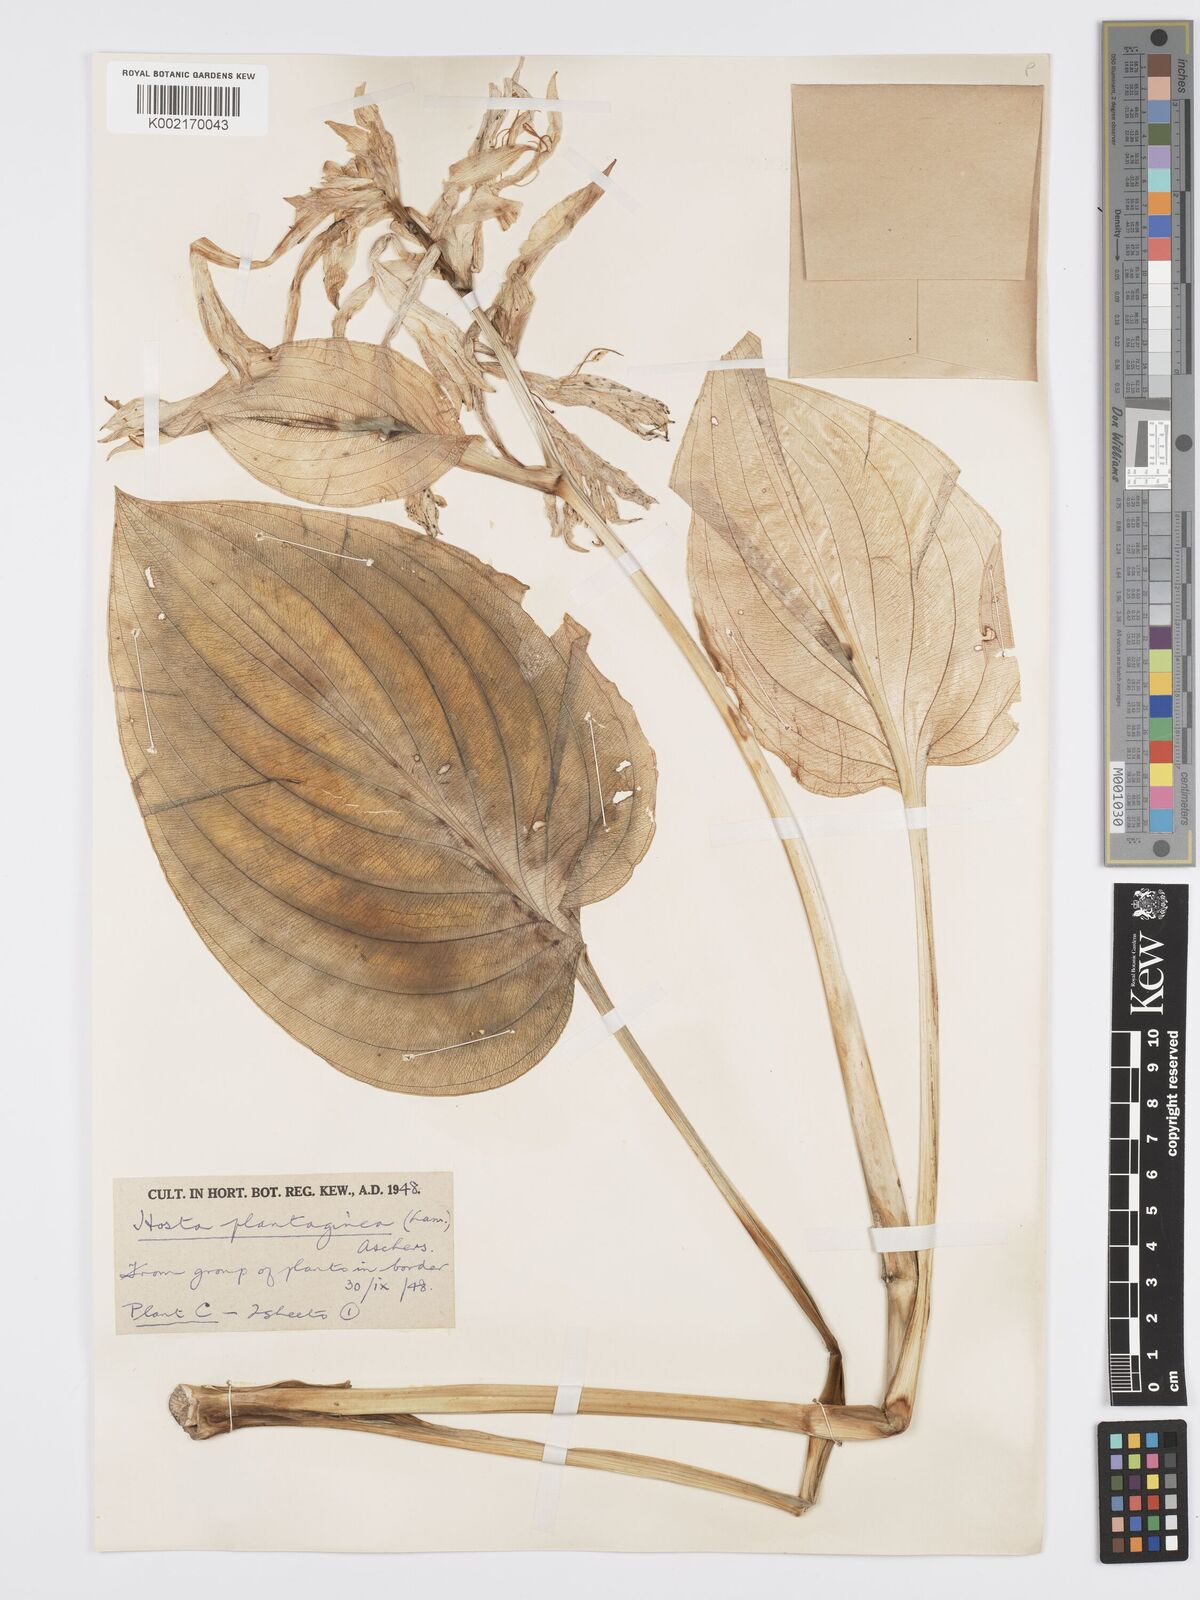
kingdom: Plantae
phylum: Tracheophyta
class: Liliopsida
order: Asparagales
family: Asparagaceae
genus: Hosta
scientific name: Hosta plantaginea
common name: August-lily
